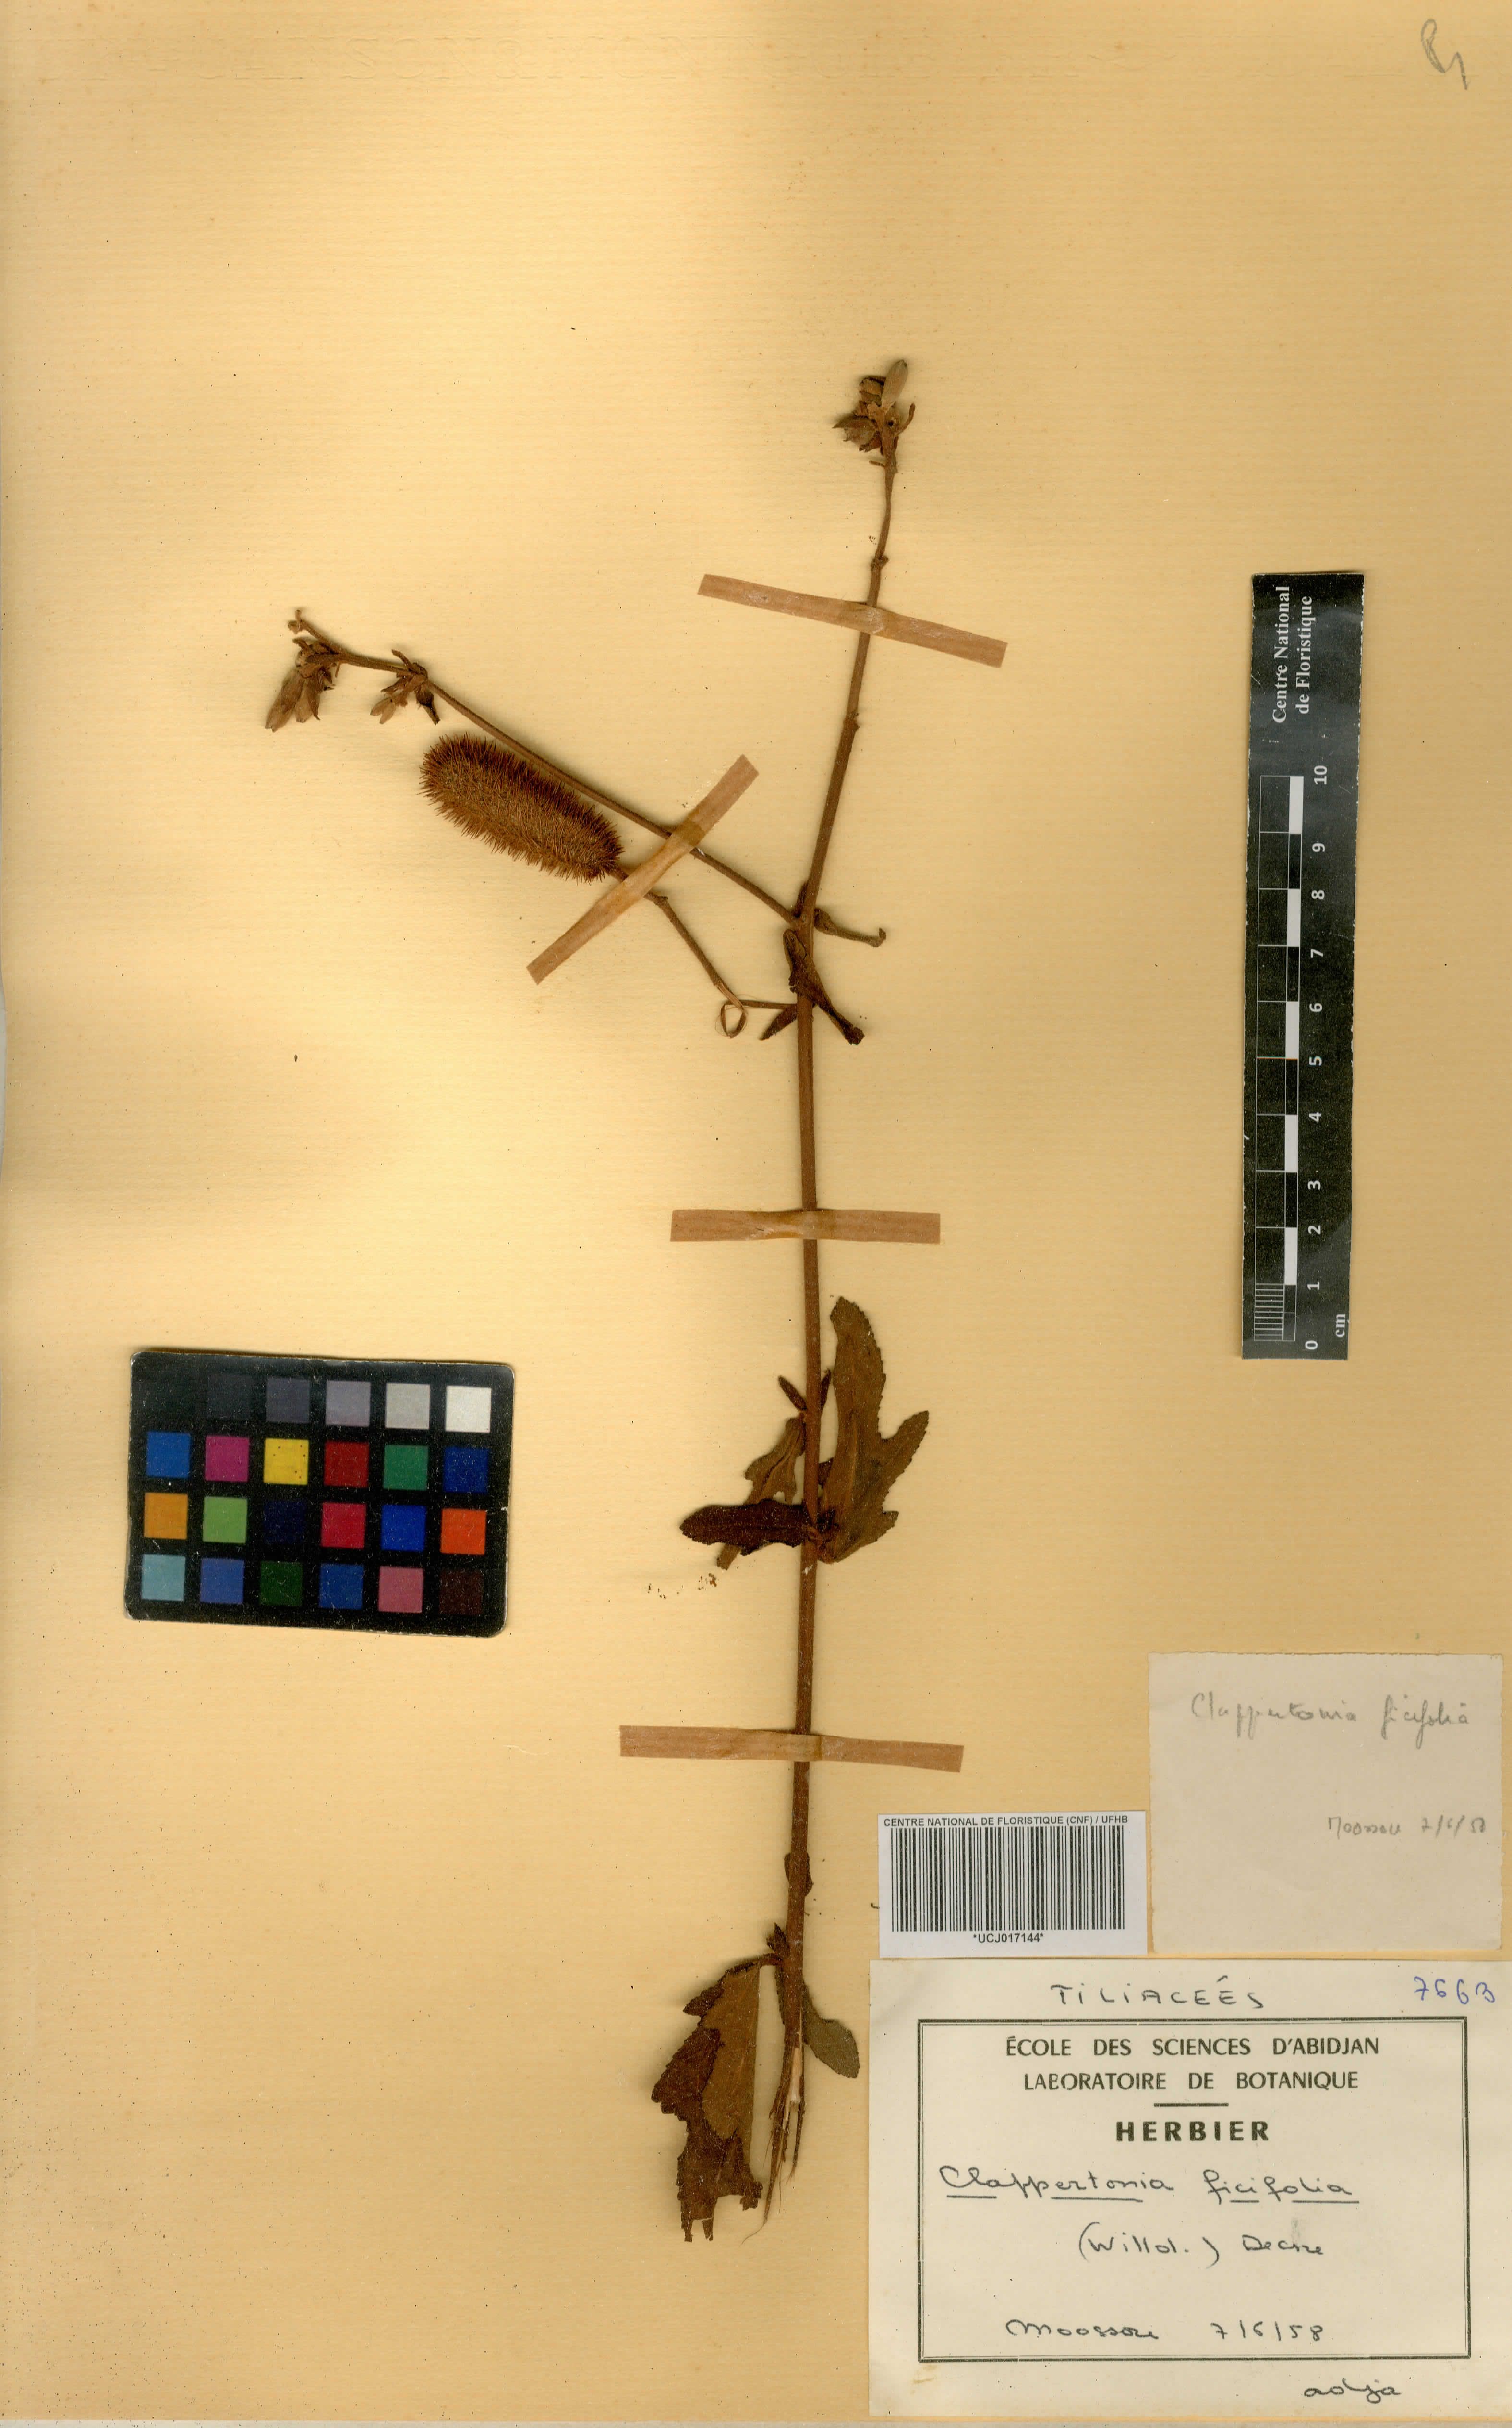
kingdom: Plantae
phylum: Tracheophyta
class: Magnoliopsida
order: Malvales
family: Malvaceae
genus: Clappertonia
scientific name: Clappertonia ficifolia
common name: Bolo-bolo
